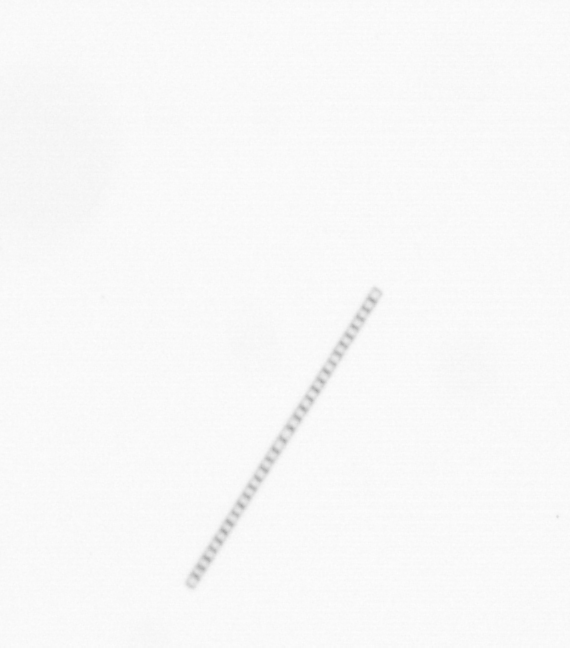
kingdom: Chromista
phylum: Ochrophyta
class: Bacillariophyceae
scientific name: Bacillariophyceae
